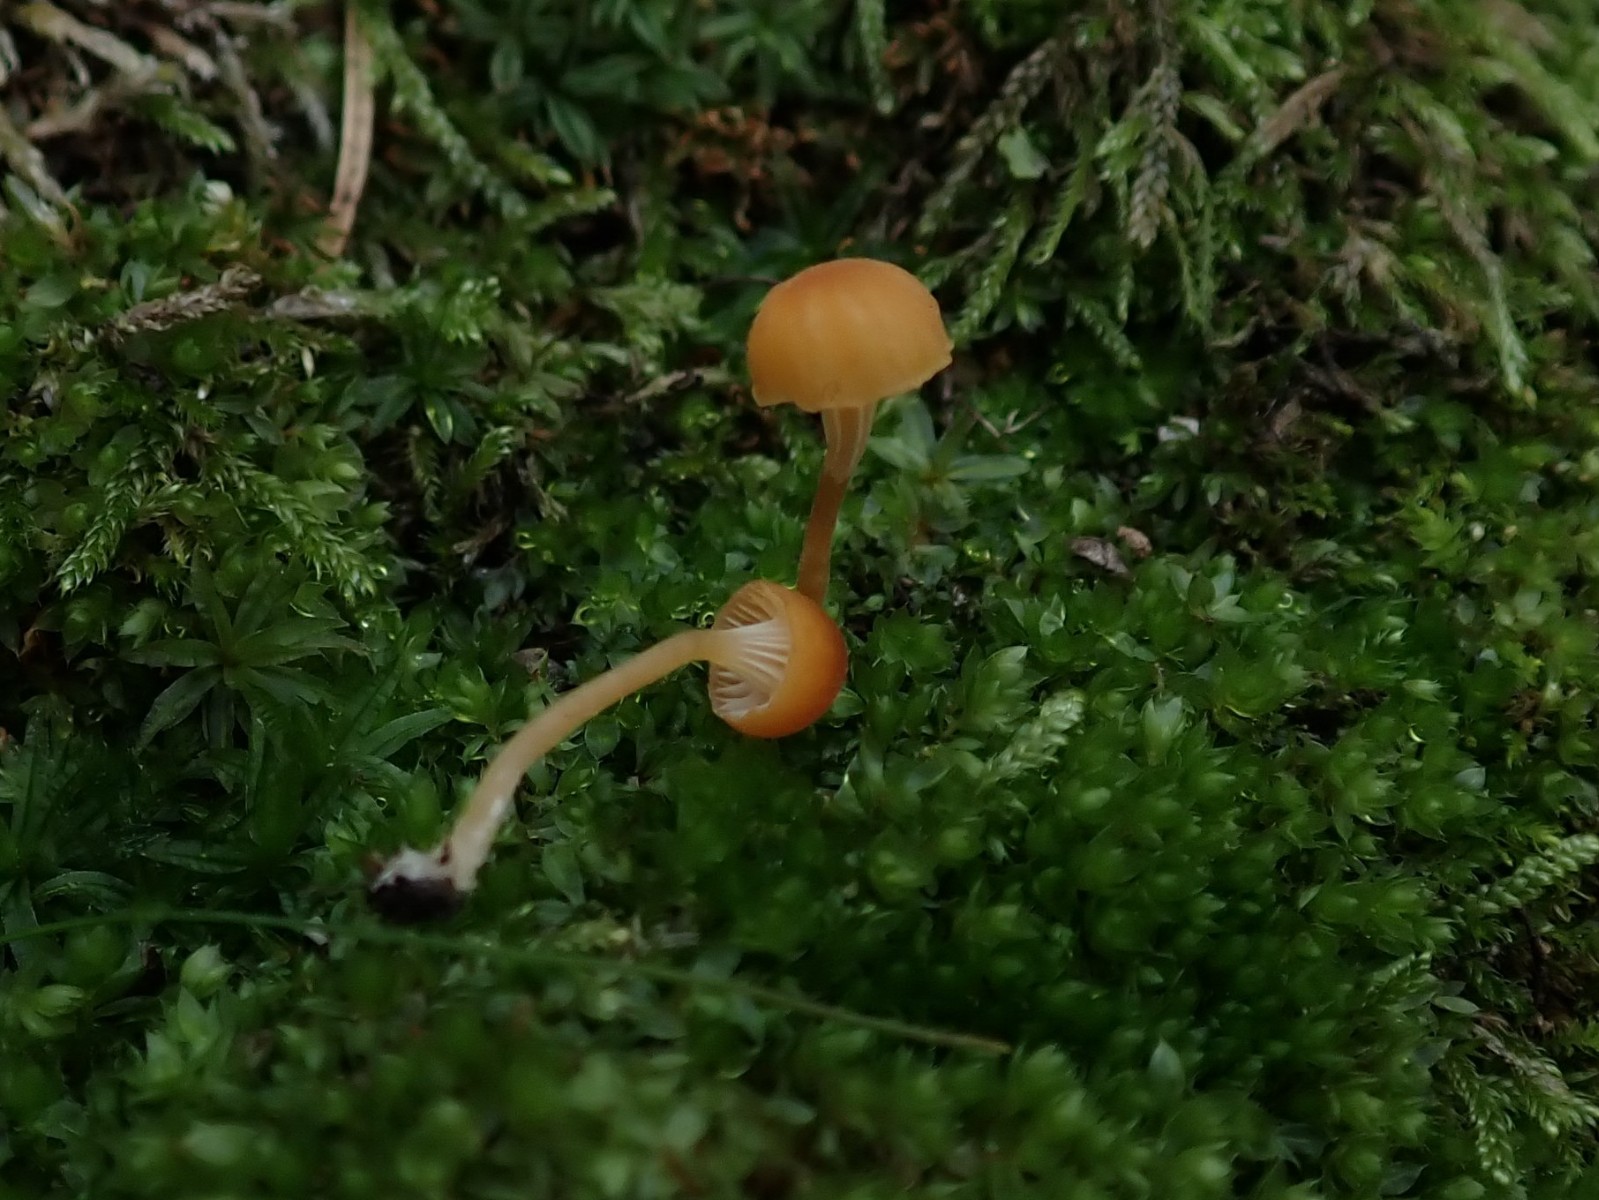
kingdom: Fungi
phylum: Basidiomycota
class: Agaricomycetes
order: Hymenochaetales
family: Rickenellaceae
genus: Rickenella
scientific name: Rickenella fibula
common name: orange mosnavlehat
